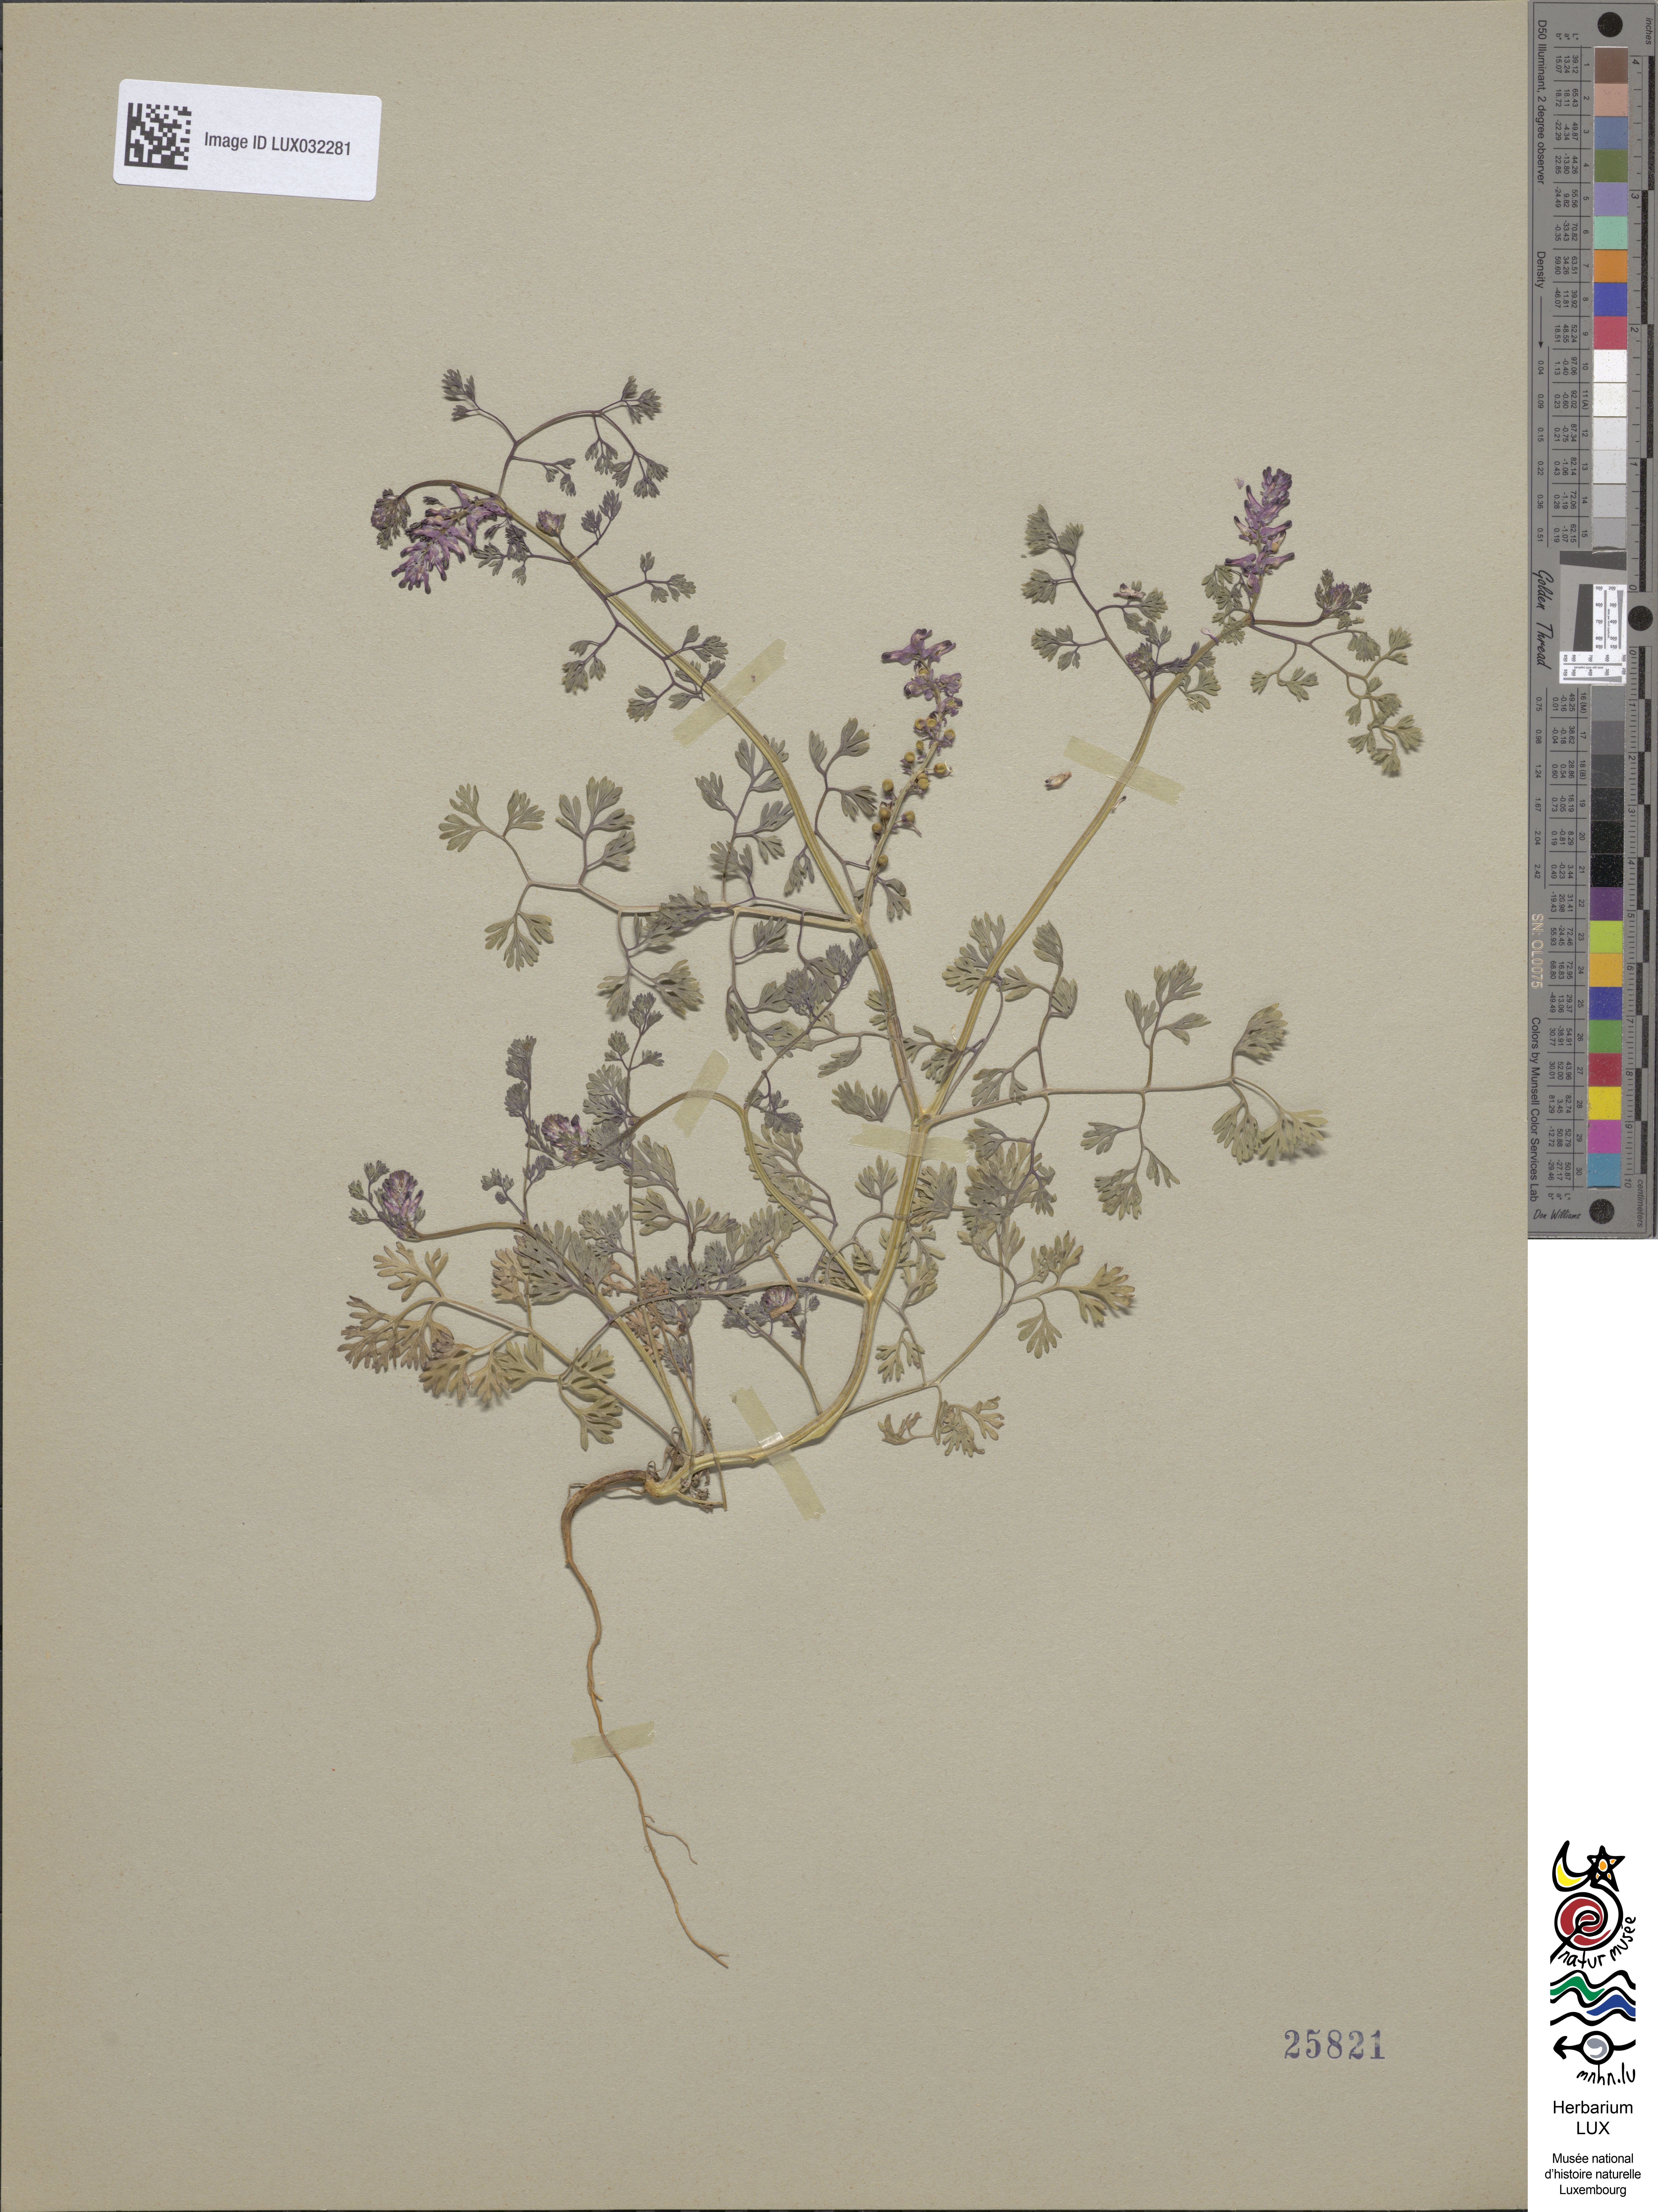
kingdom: Plantae
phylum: Tracheophyta
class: Magnoliopsida
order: Ranunculales
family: Papaveraceae
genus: Fumaria
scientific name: Fumaria densiflora
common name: Dense-flowered fumitory
